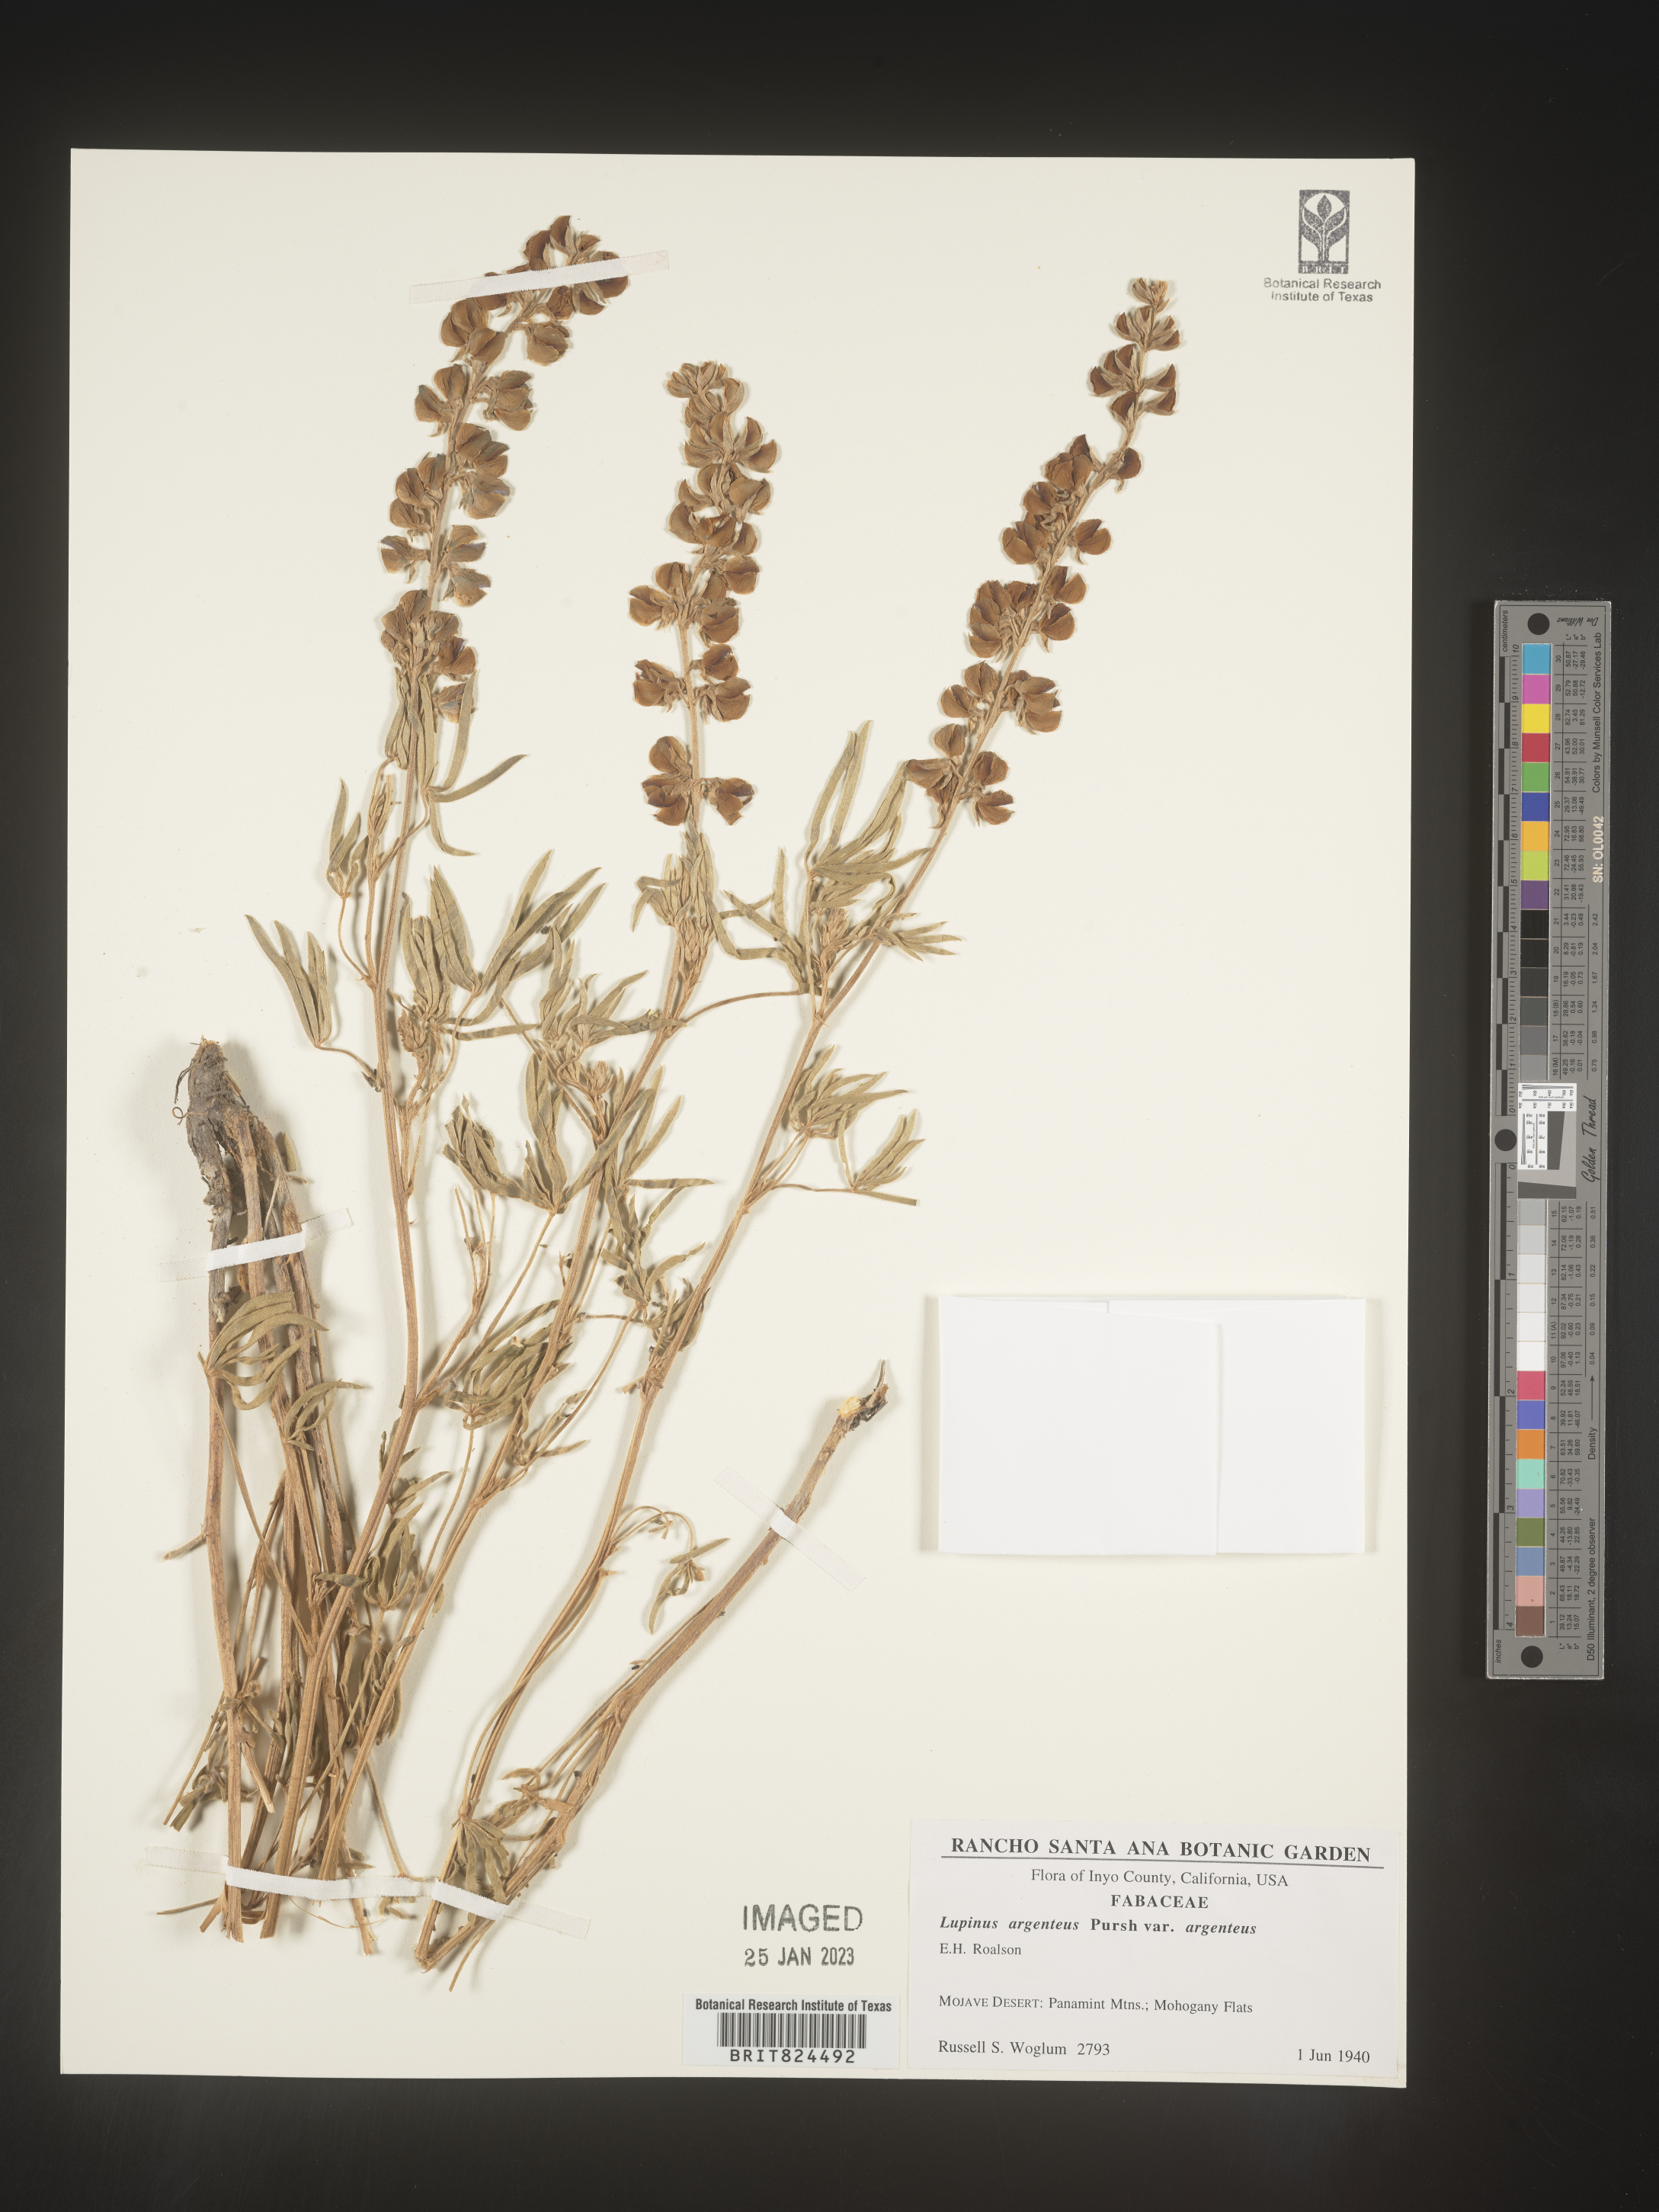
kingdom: Plantae
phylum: Tracheophyta
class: Magnoliopsida
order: Fabales
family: Fabaceae
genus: Lupinus
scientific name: Lupinus argenteus
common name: Silvery lupine
